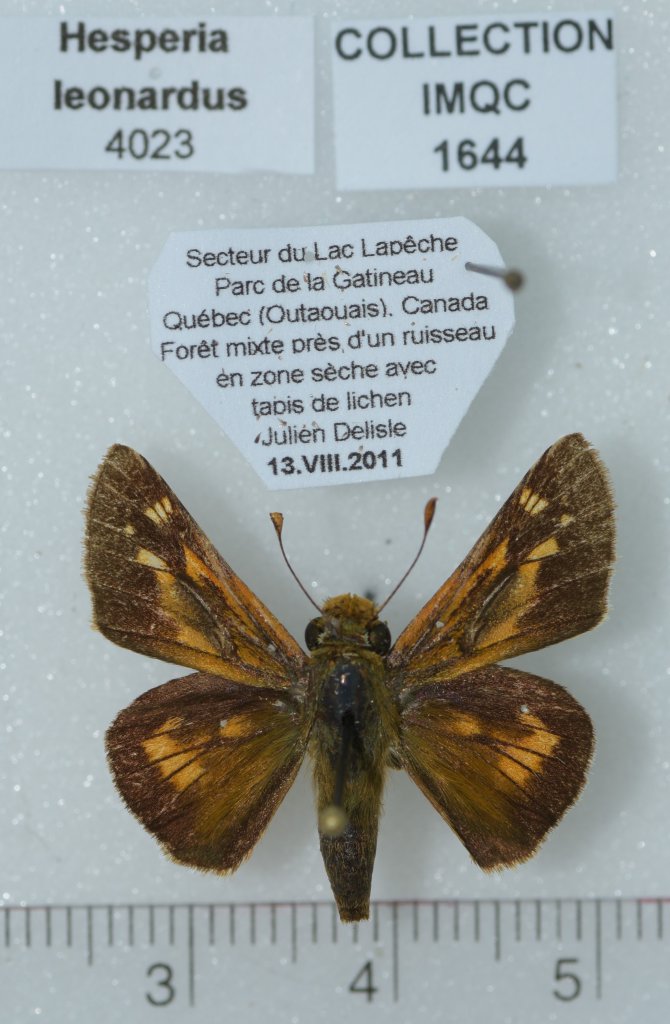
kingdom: Animalia
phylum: Arthropoda
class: Insecta
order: Lepidoptera
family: Hesperiidae
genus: Hesperia
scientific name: Hesperia leonardus
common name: Leonard's Skipper
